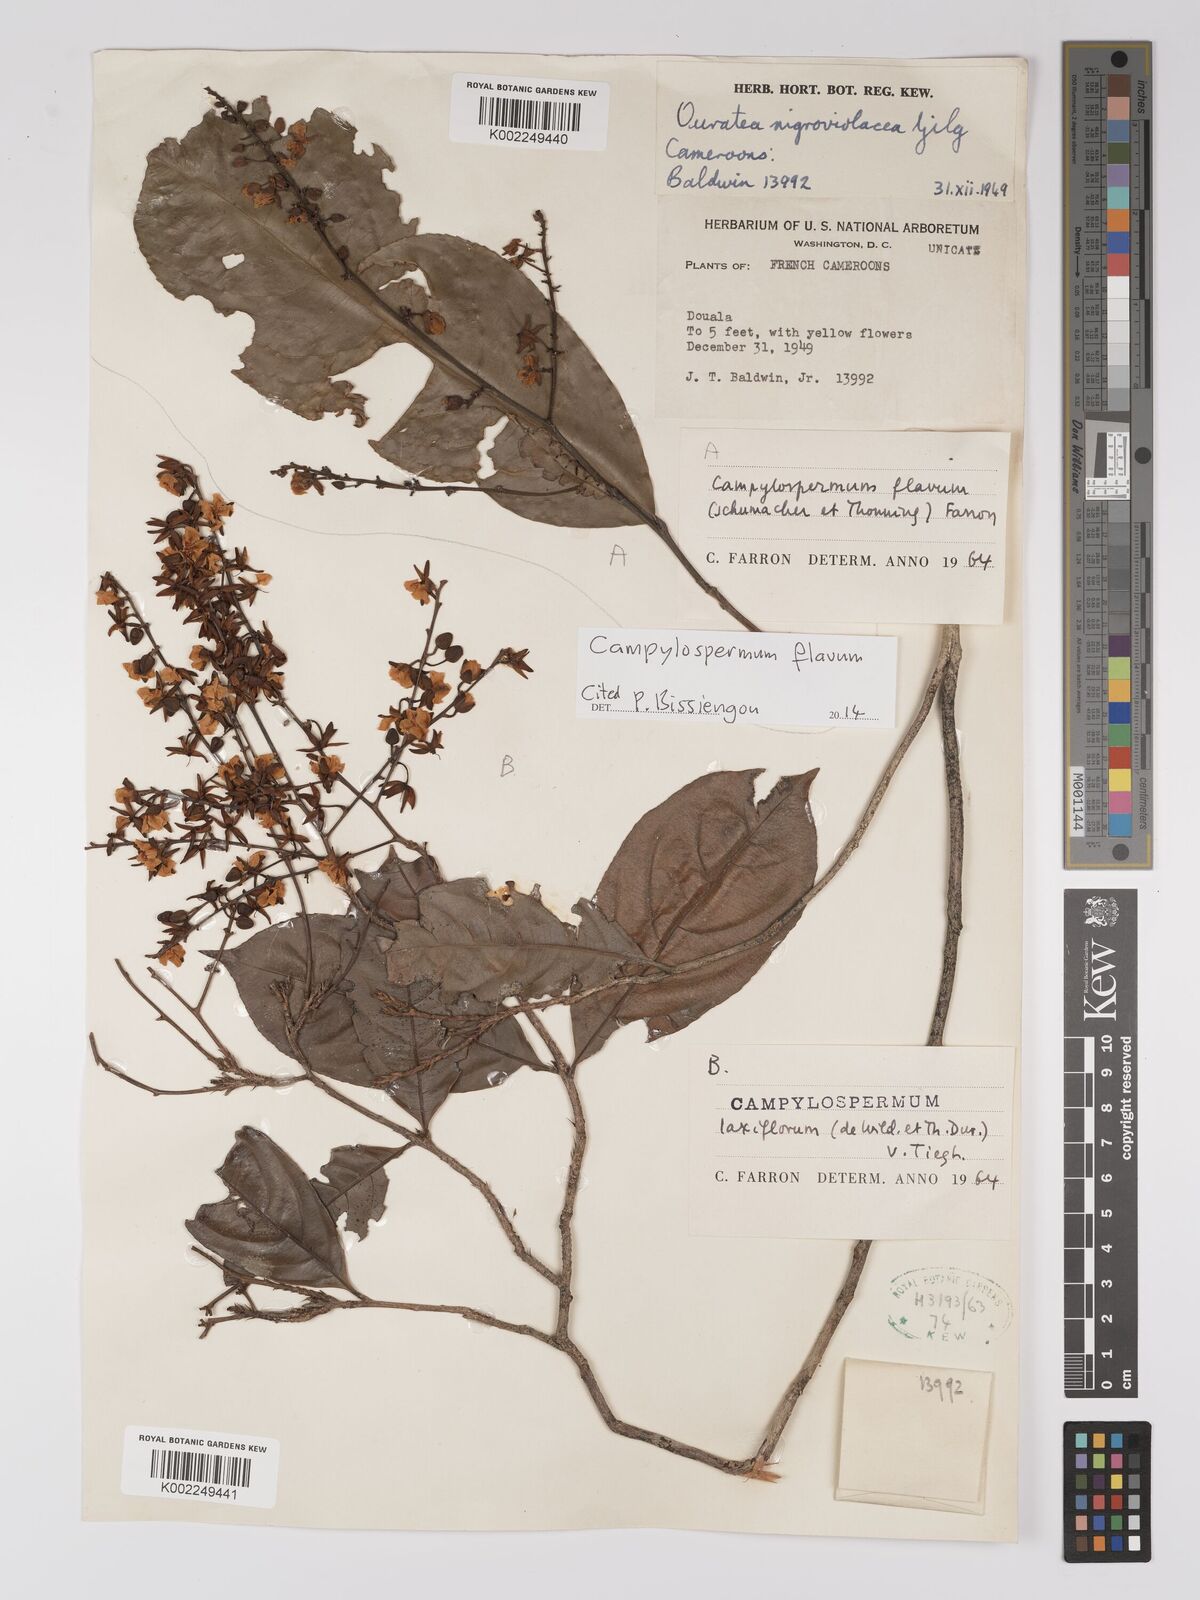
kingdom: Plantae
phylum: Tracheophyta
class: Magnoliopsida
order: Malpighiales
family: Ochnaceae
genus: Campylospermum
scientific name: Campylospermum flavum
